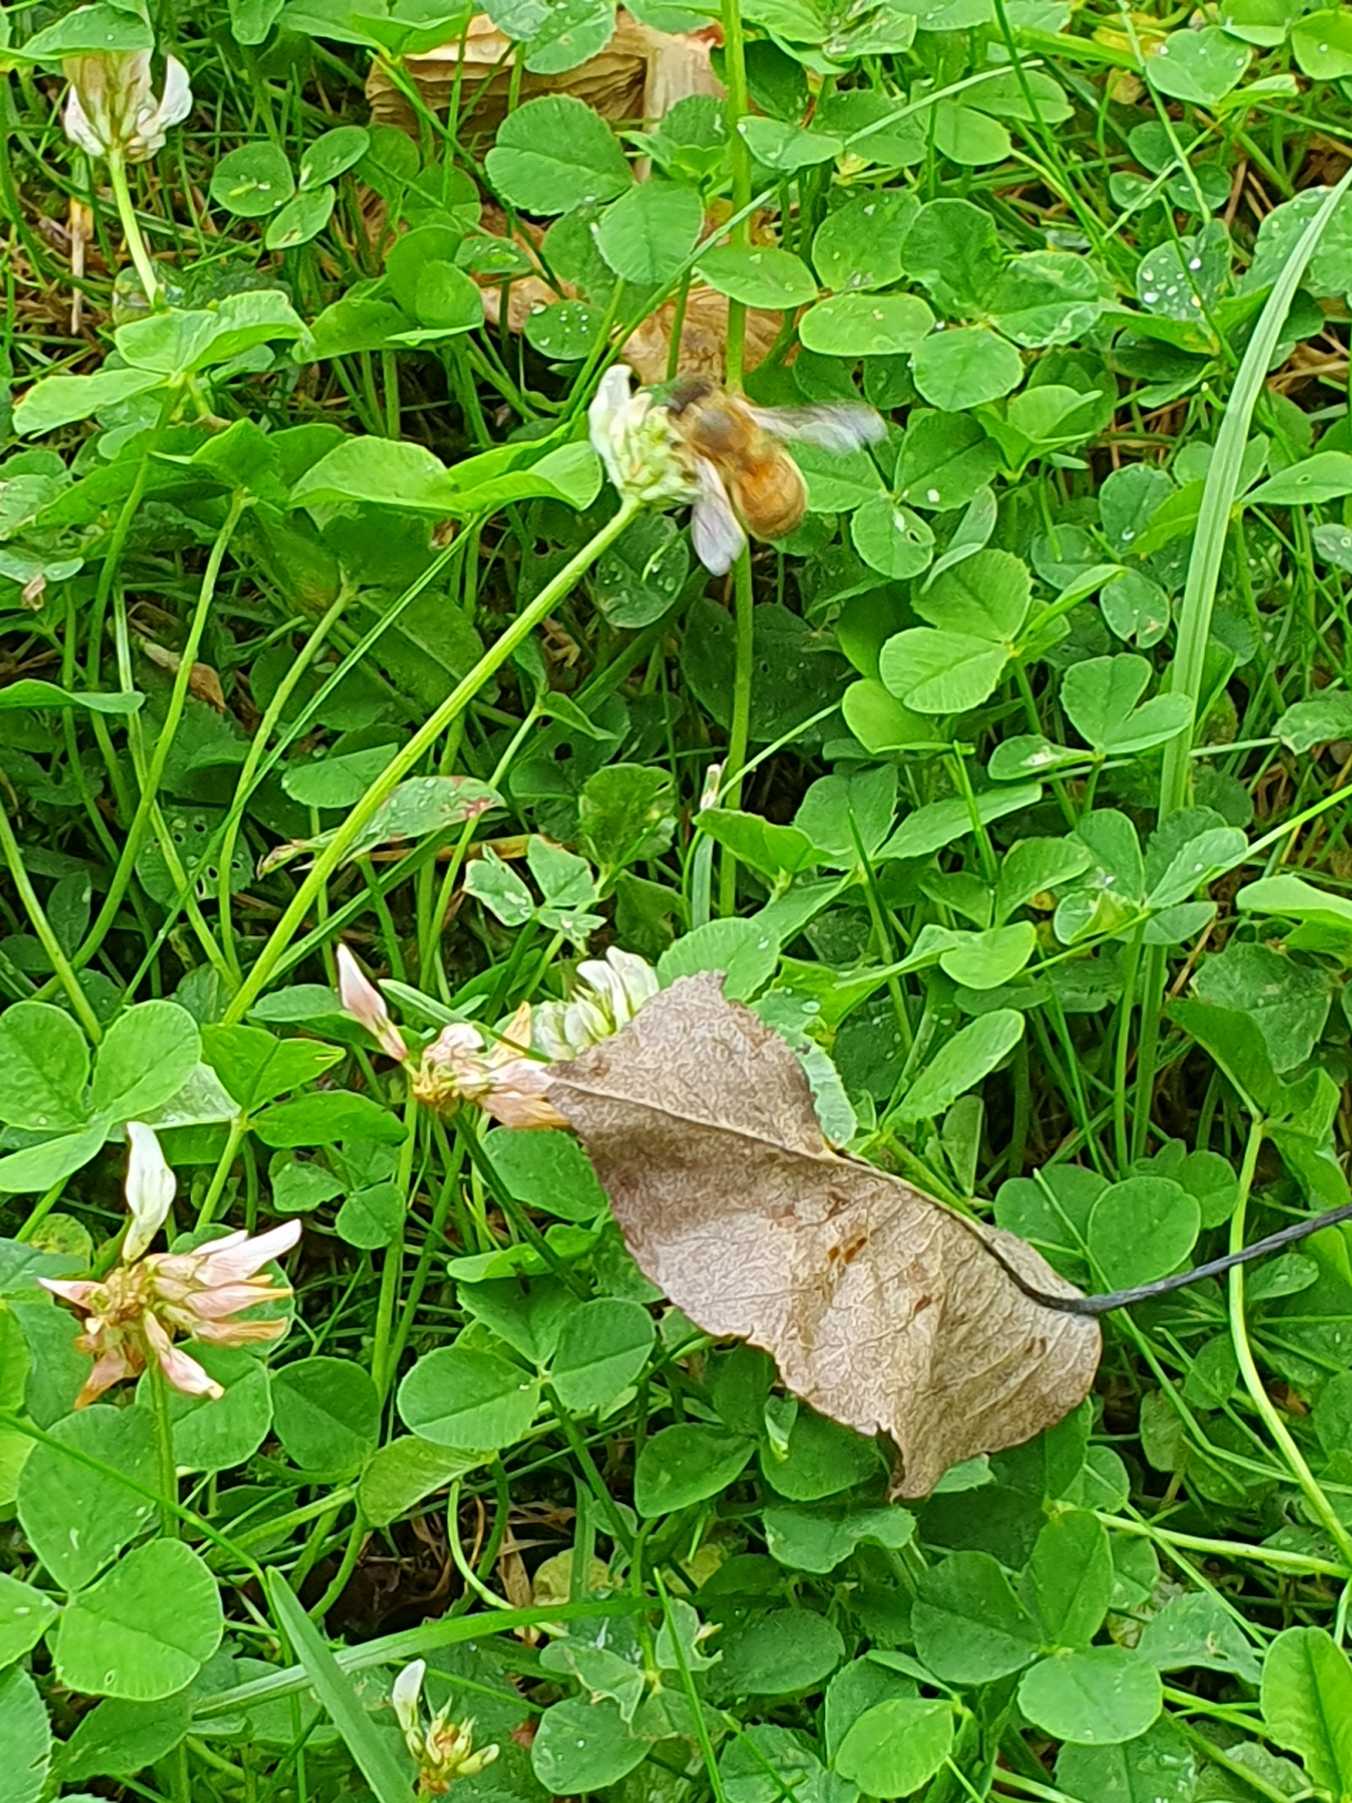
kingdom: Animalia
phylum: Arthropoda
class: Insecta
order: Hymenoptera
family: Apidae
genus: Apis
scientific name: Apis mellifera
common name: Honningbi
